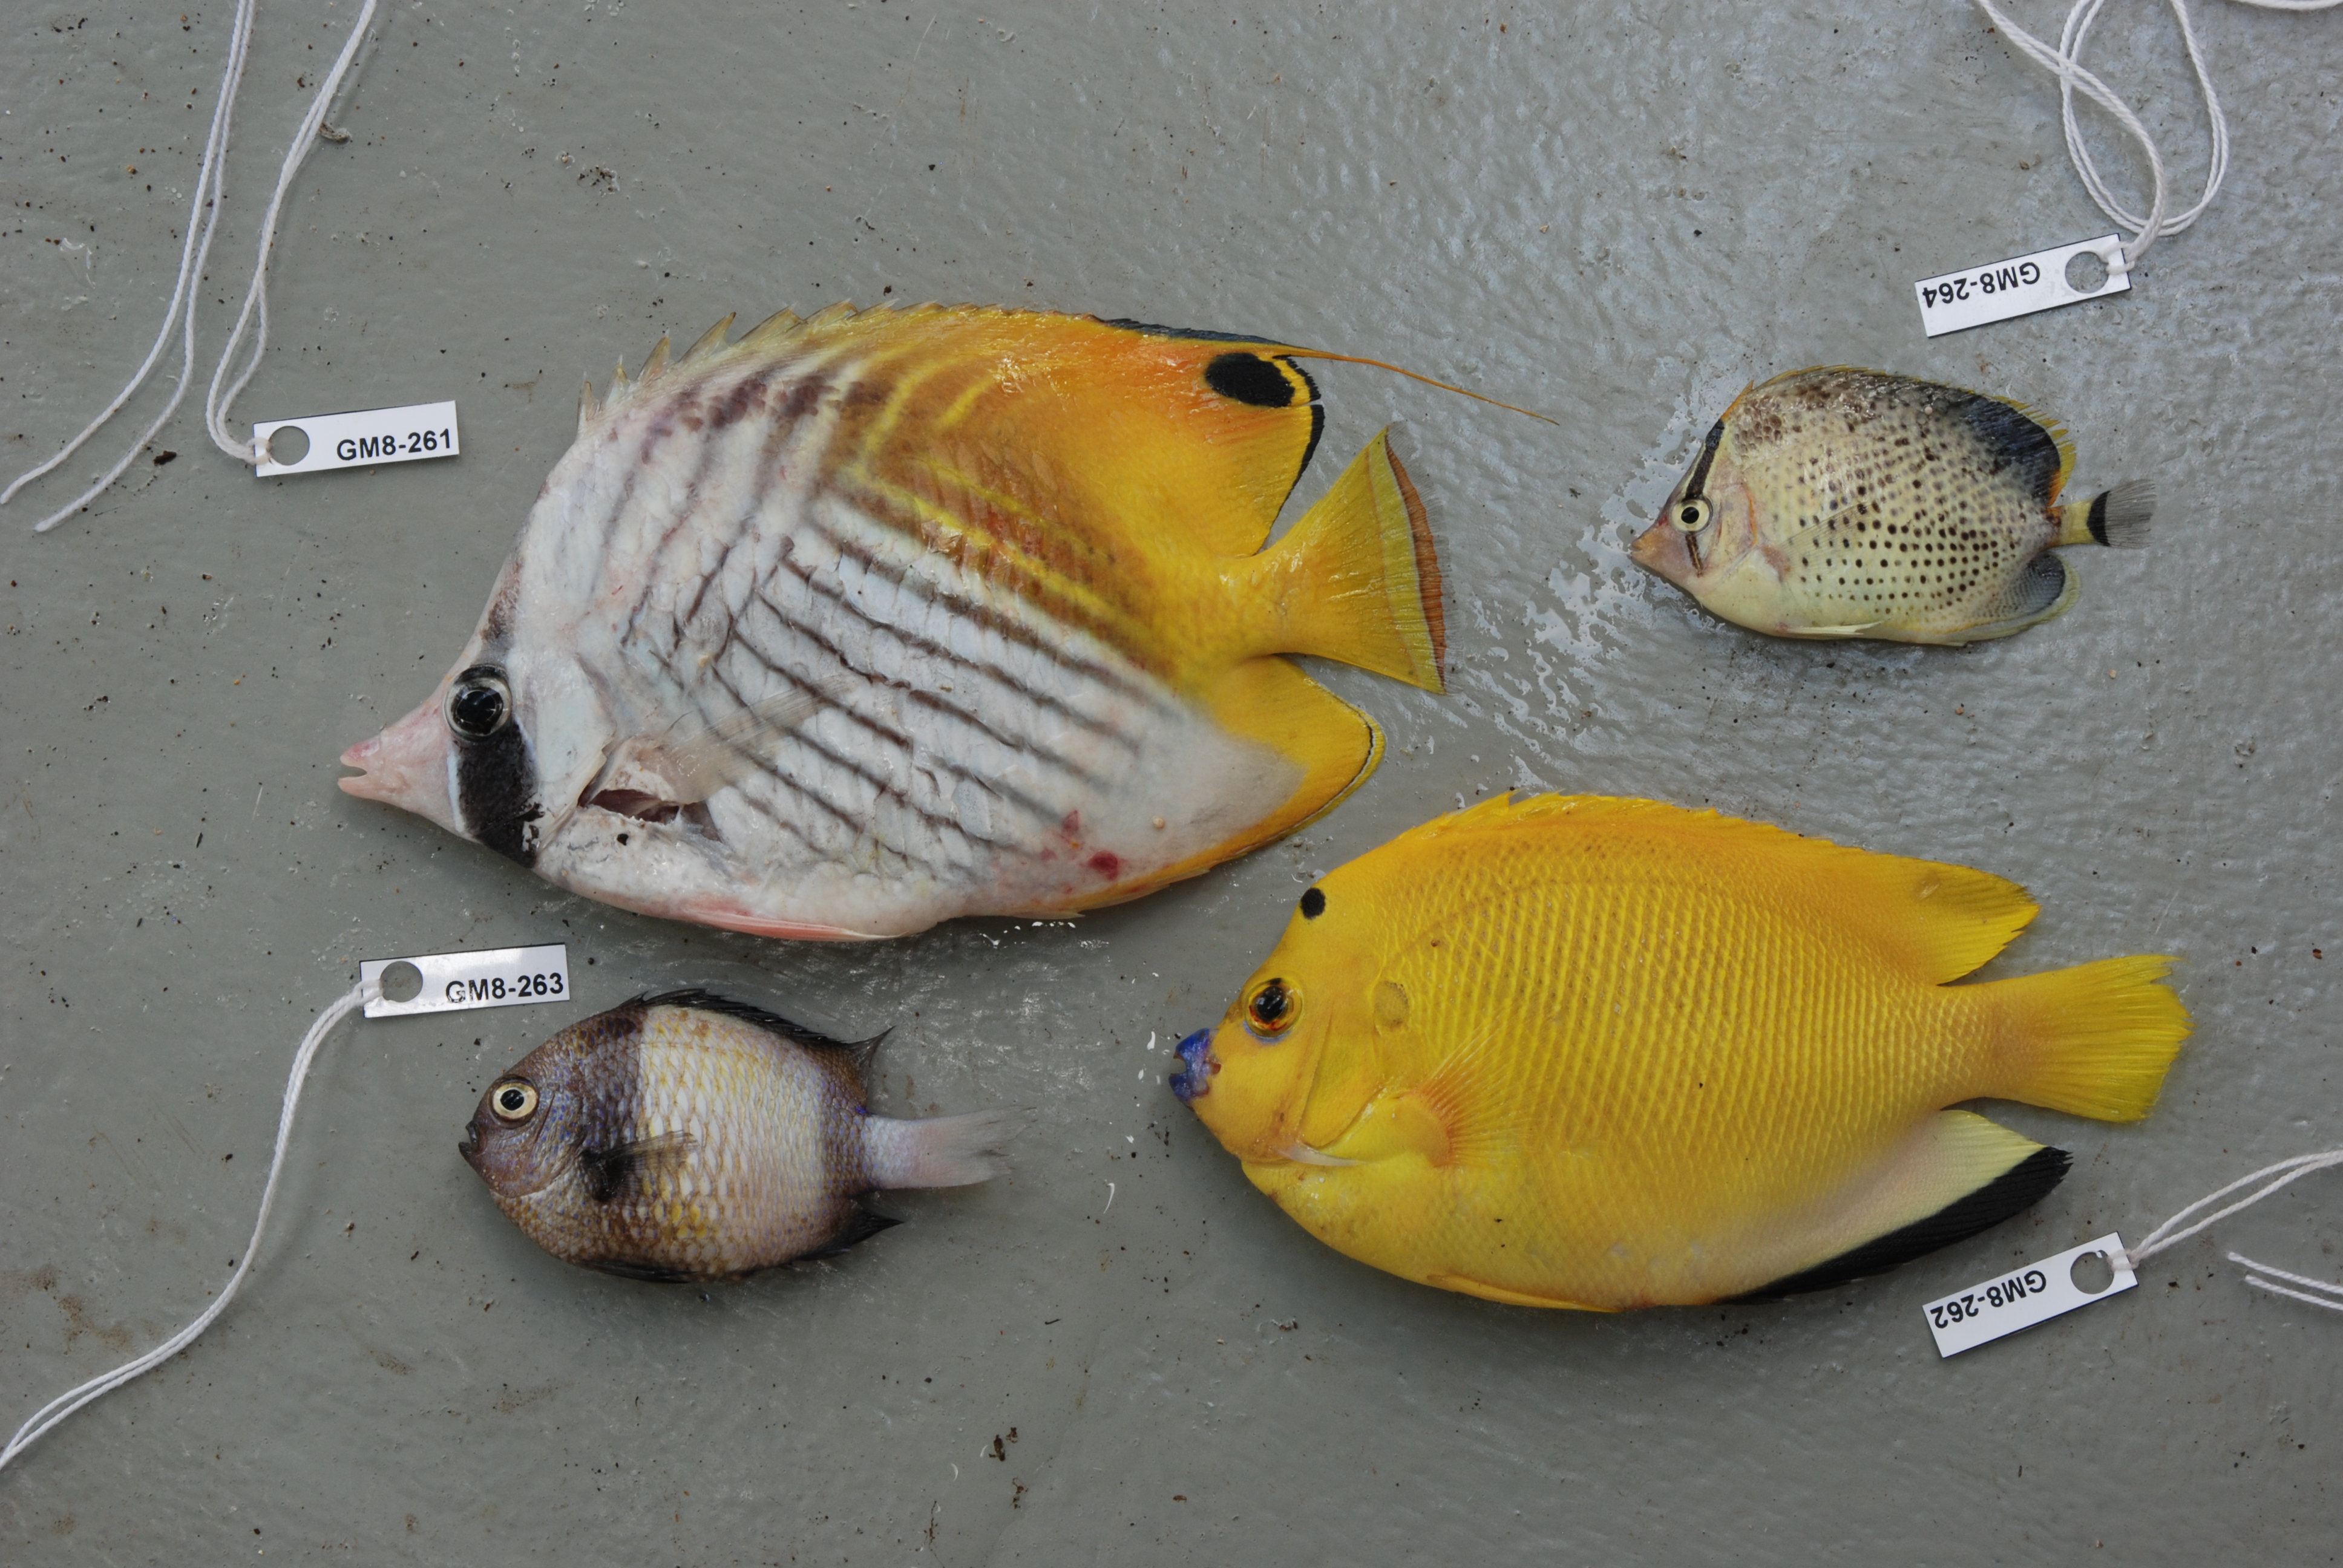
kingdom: Animalia
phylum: Chordata
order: Perciformes
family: Pomacentridae
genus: Dascyllus
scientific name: Dascyllus carneus
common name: Indian dascyllus
